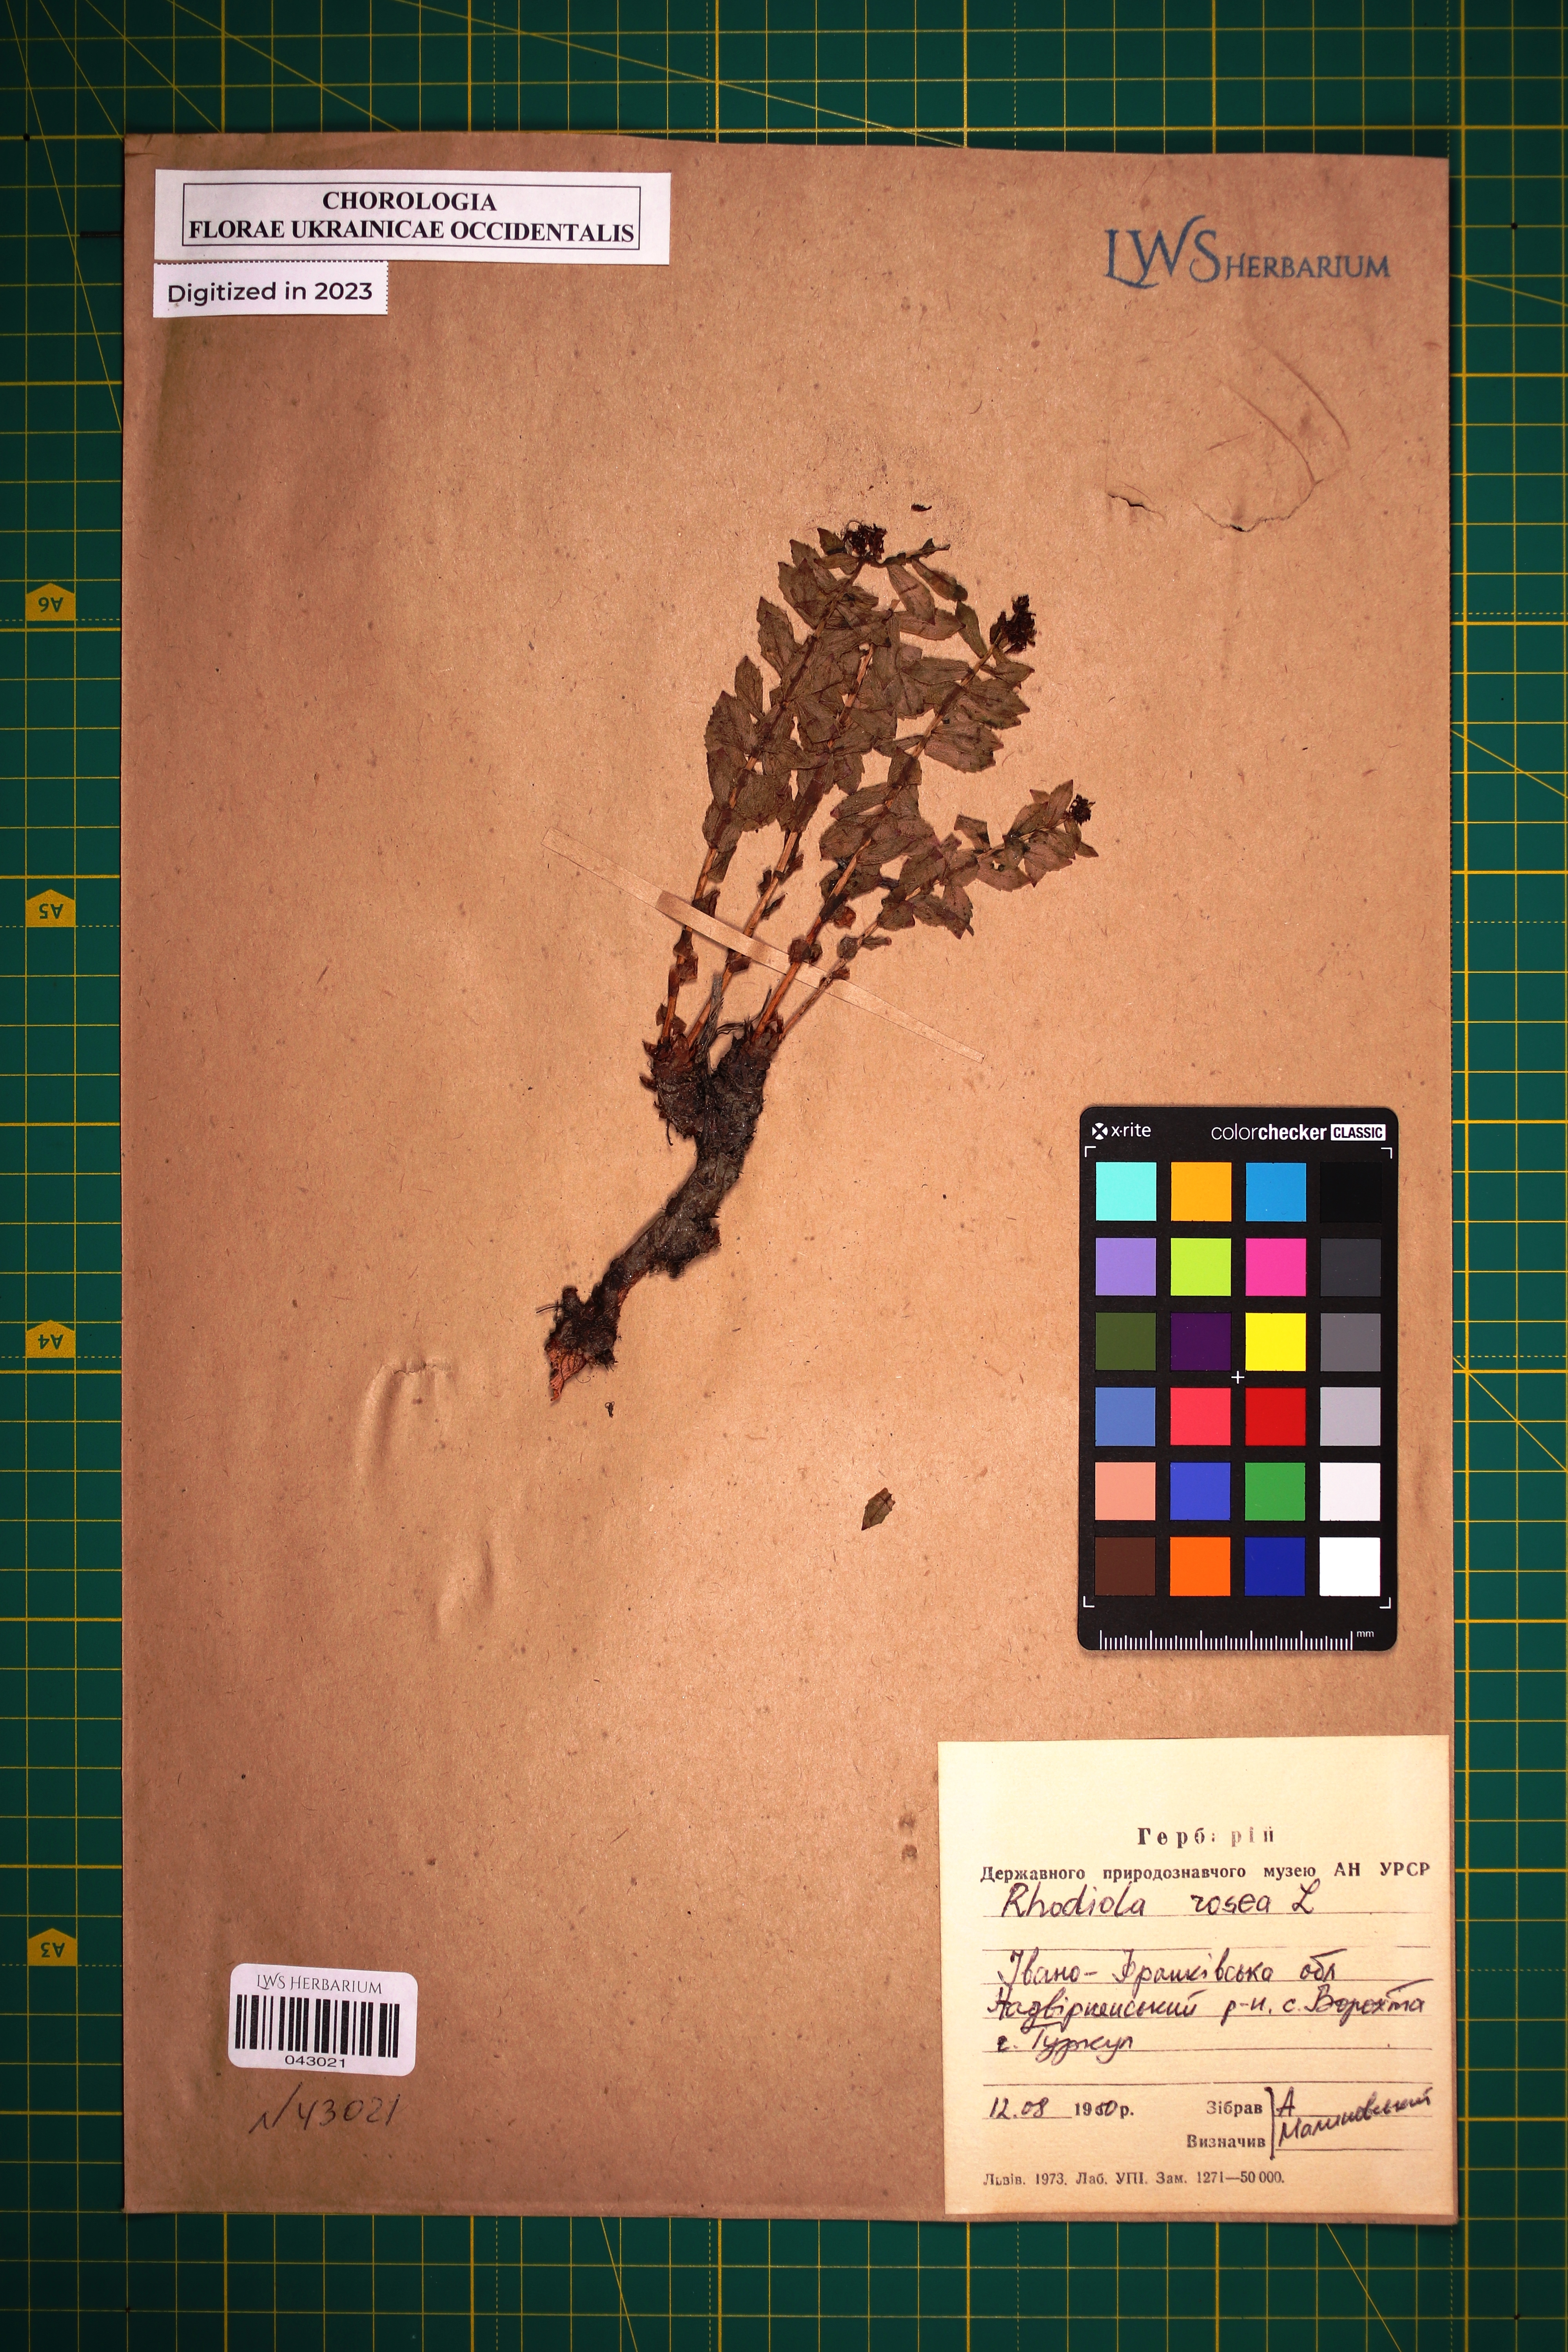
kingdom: Plantae
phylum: Tracheophyta
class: Magnoliopsida
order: Saxifragales
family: Crassulaceae
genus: Rhodiola
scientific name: Rhodiola rosea
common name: Roseroot
